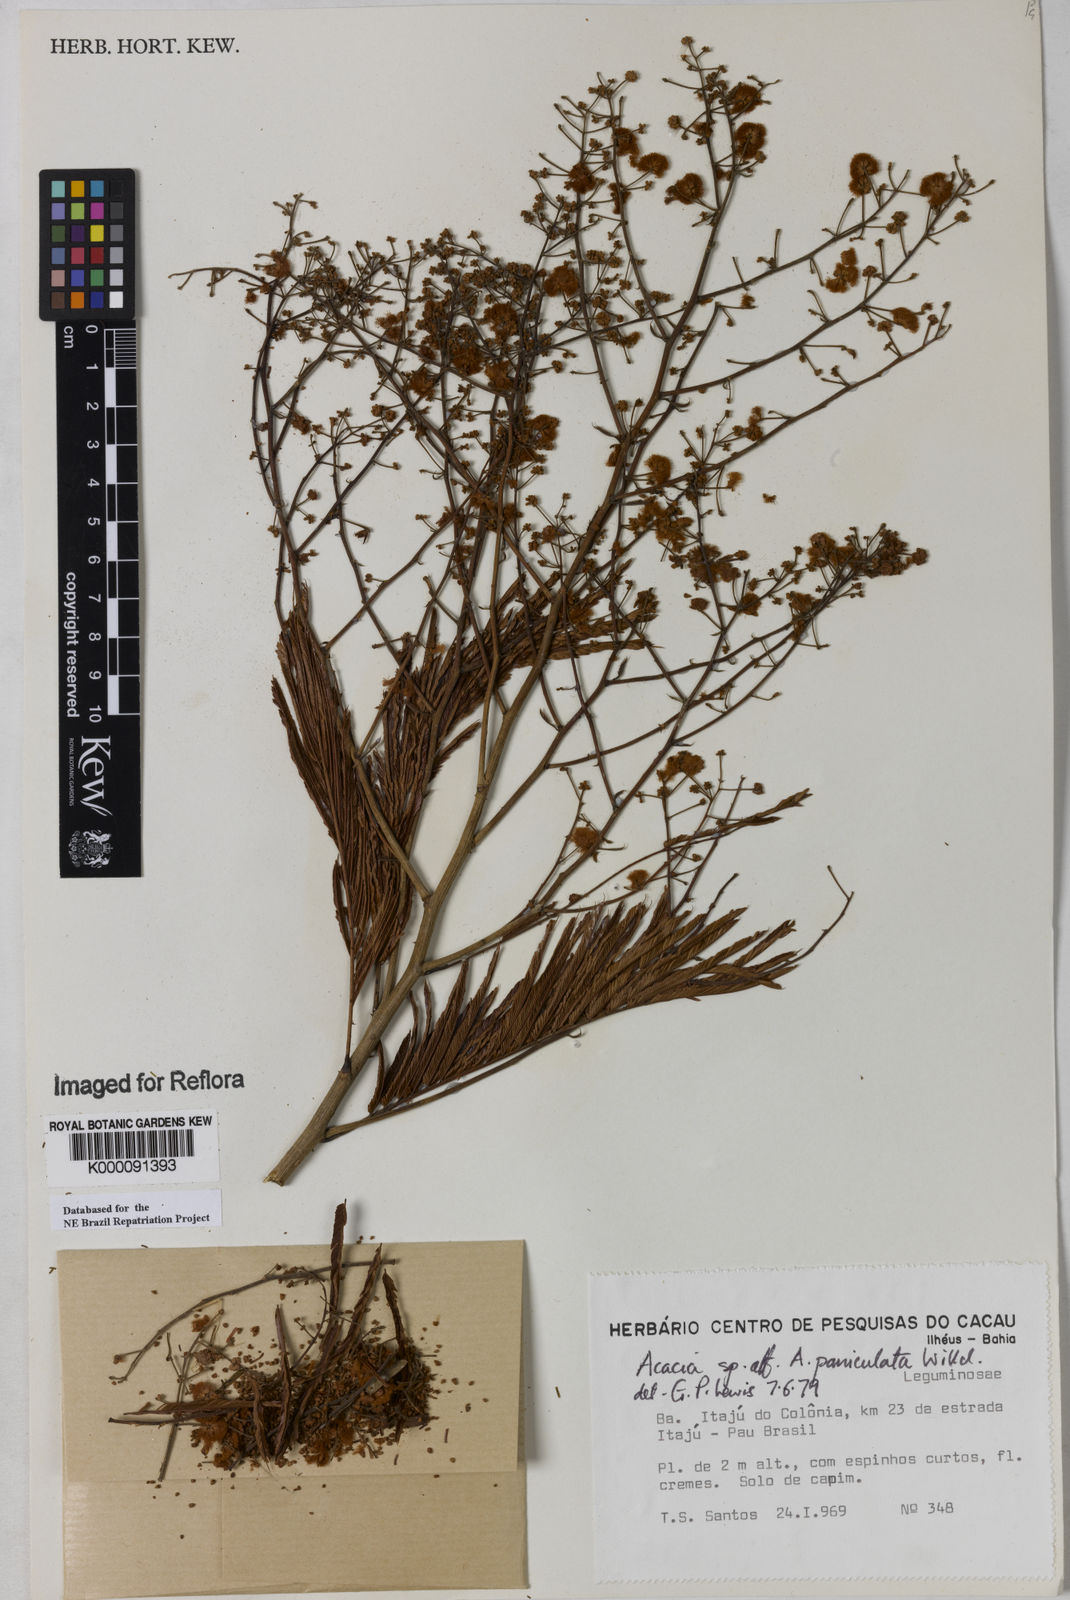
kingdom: Plantae
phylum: Tracheophyta
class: Magnoliopsida
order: Fabales
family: Fabaceae
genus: Senegalia
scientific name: Senegalia tenuifolia
